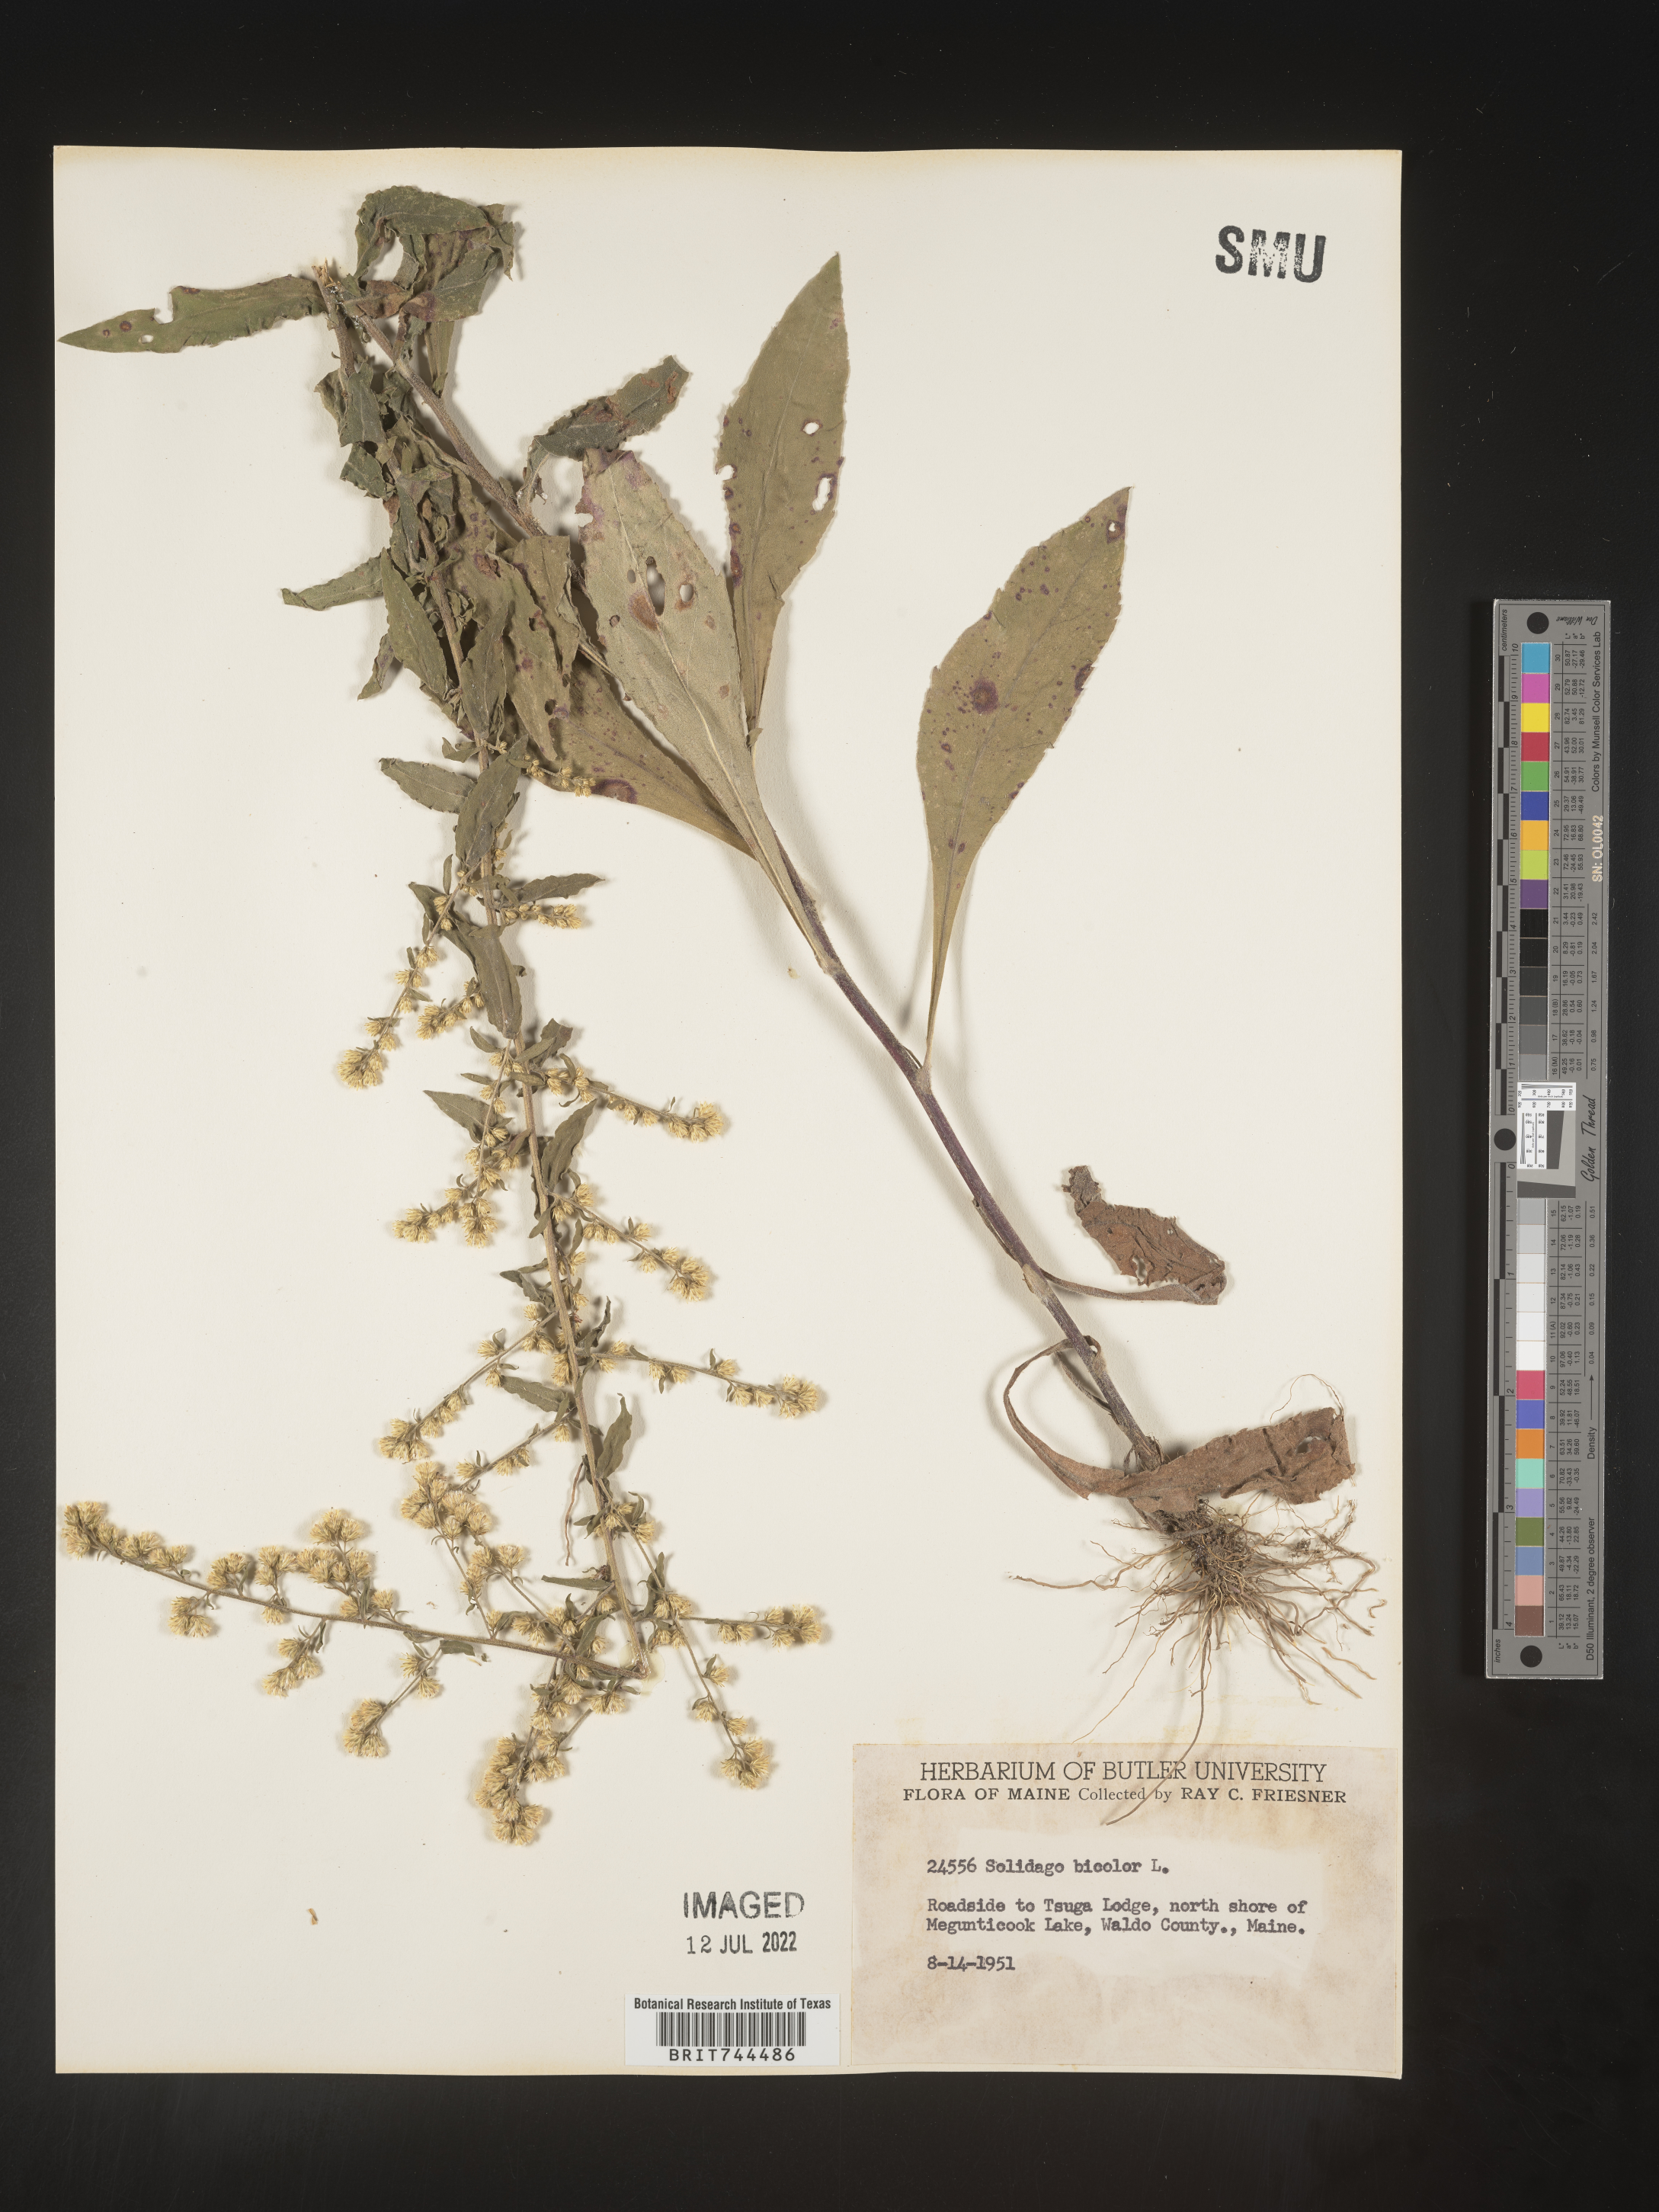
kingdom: Plantae
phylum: Tracheophyta
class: Magnoliopsida
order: Asterales
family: Asteraceae
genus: Solidago
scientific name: Solidago bicolor
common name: Silverrod
